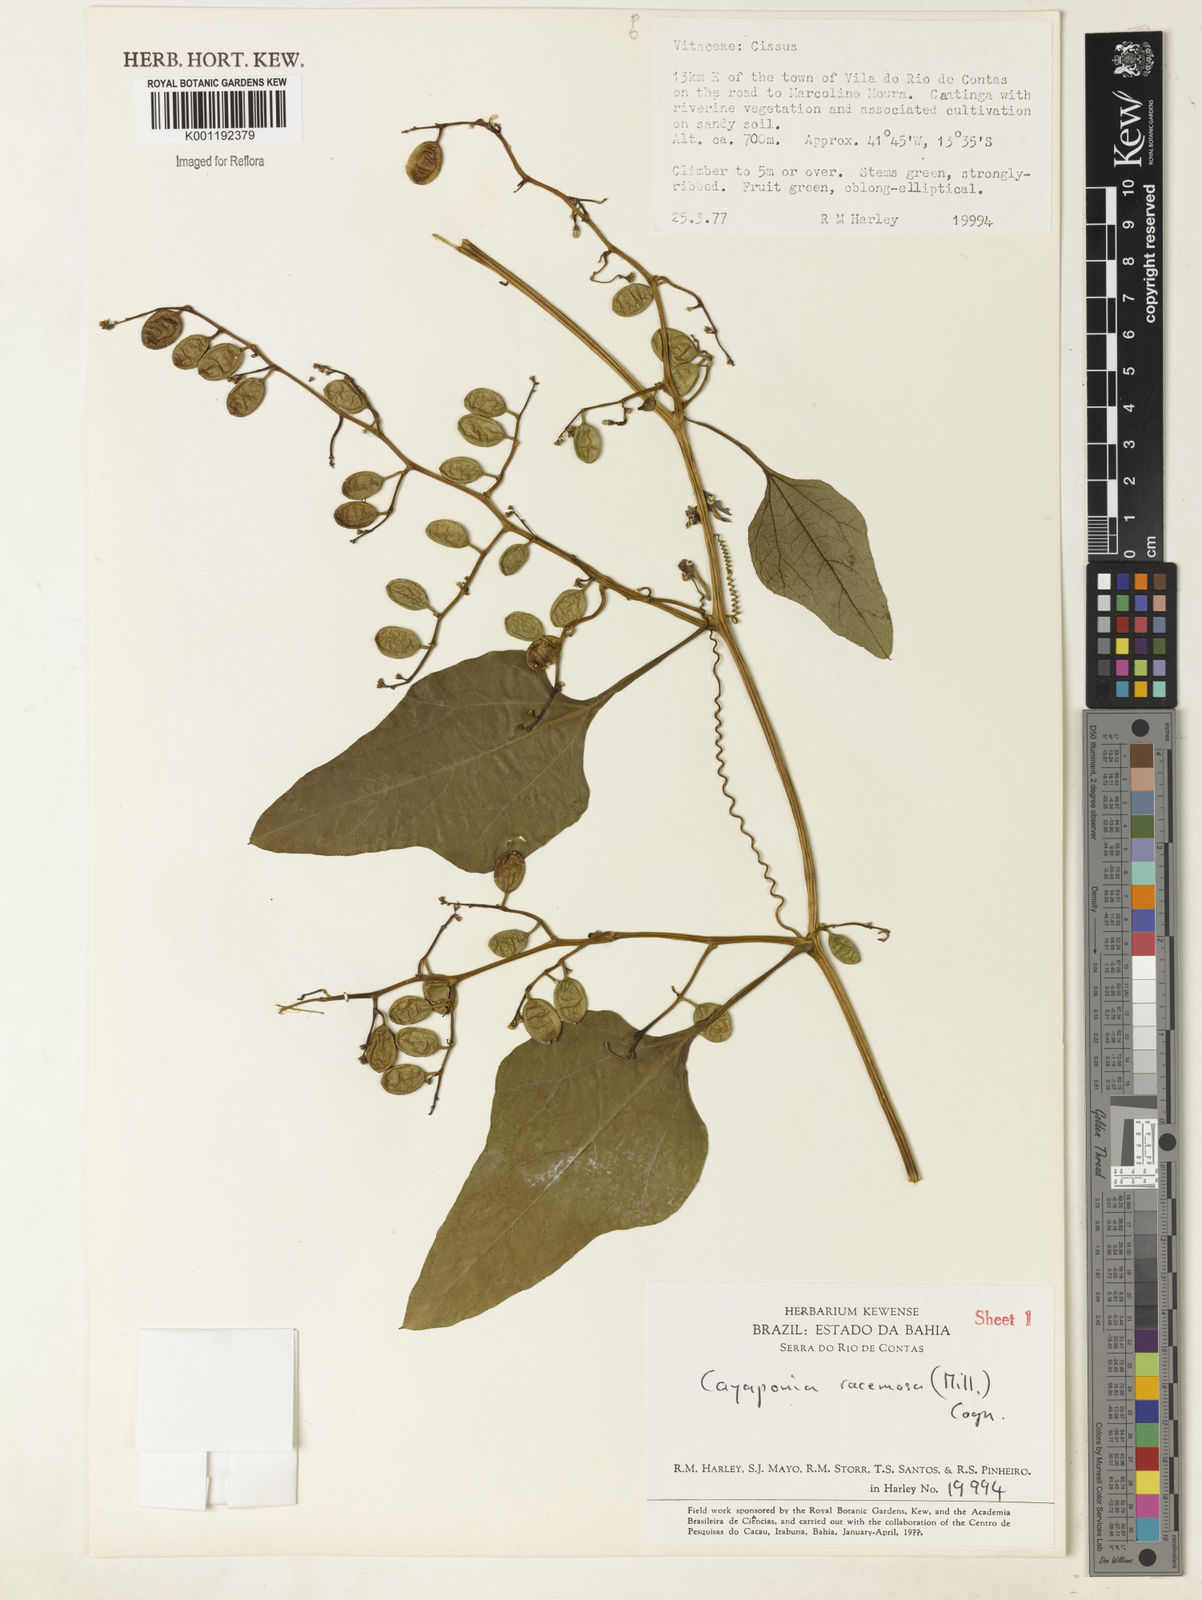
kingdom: Plantae
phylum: Tracheophyta
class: Magnoliopsida
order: Cucurbitales
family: Cucurbitaceae
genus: Cayaponia
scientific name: Cayaponia racemosa
